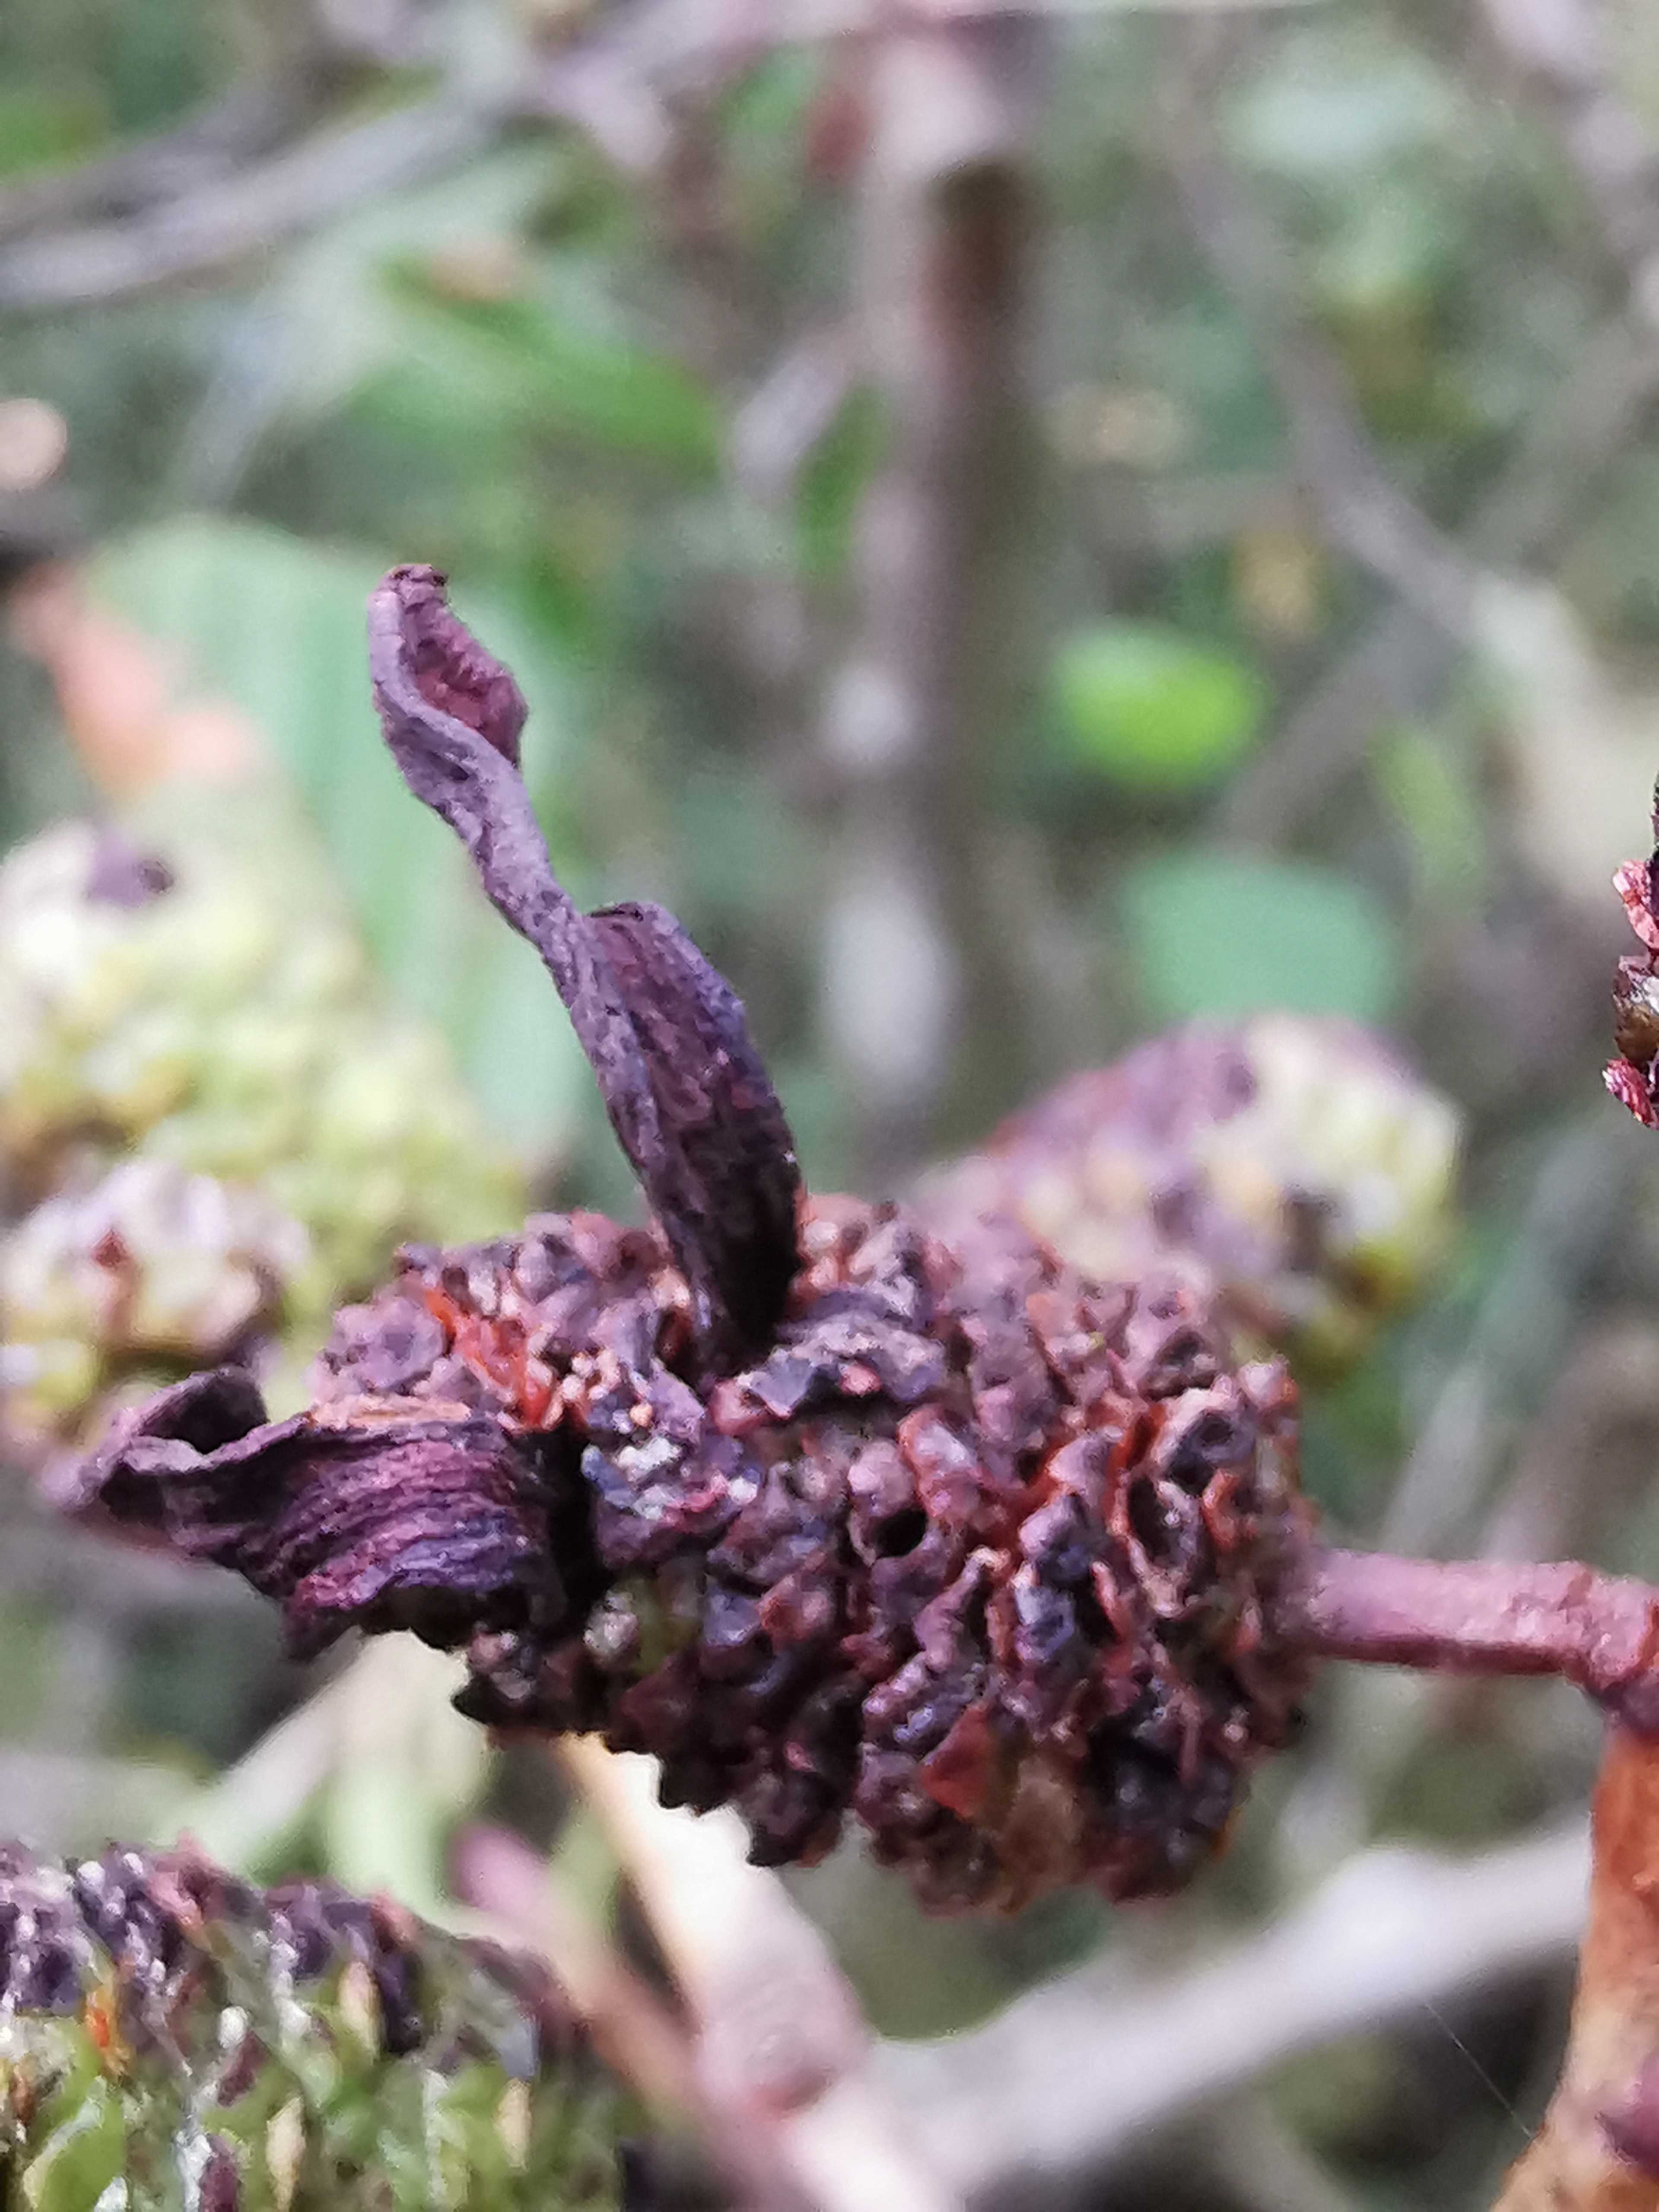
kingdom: Fungi
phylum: Ascomycota
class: Taphrinomycetes
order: Taphrinales
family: Taphrinaceae
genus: Taphrina
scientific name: Taphrina alni
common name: Alder tongue
